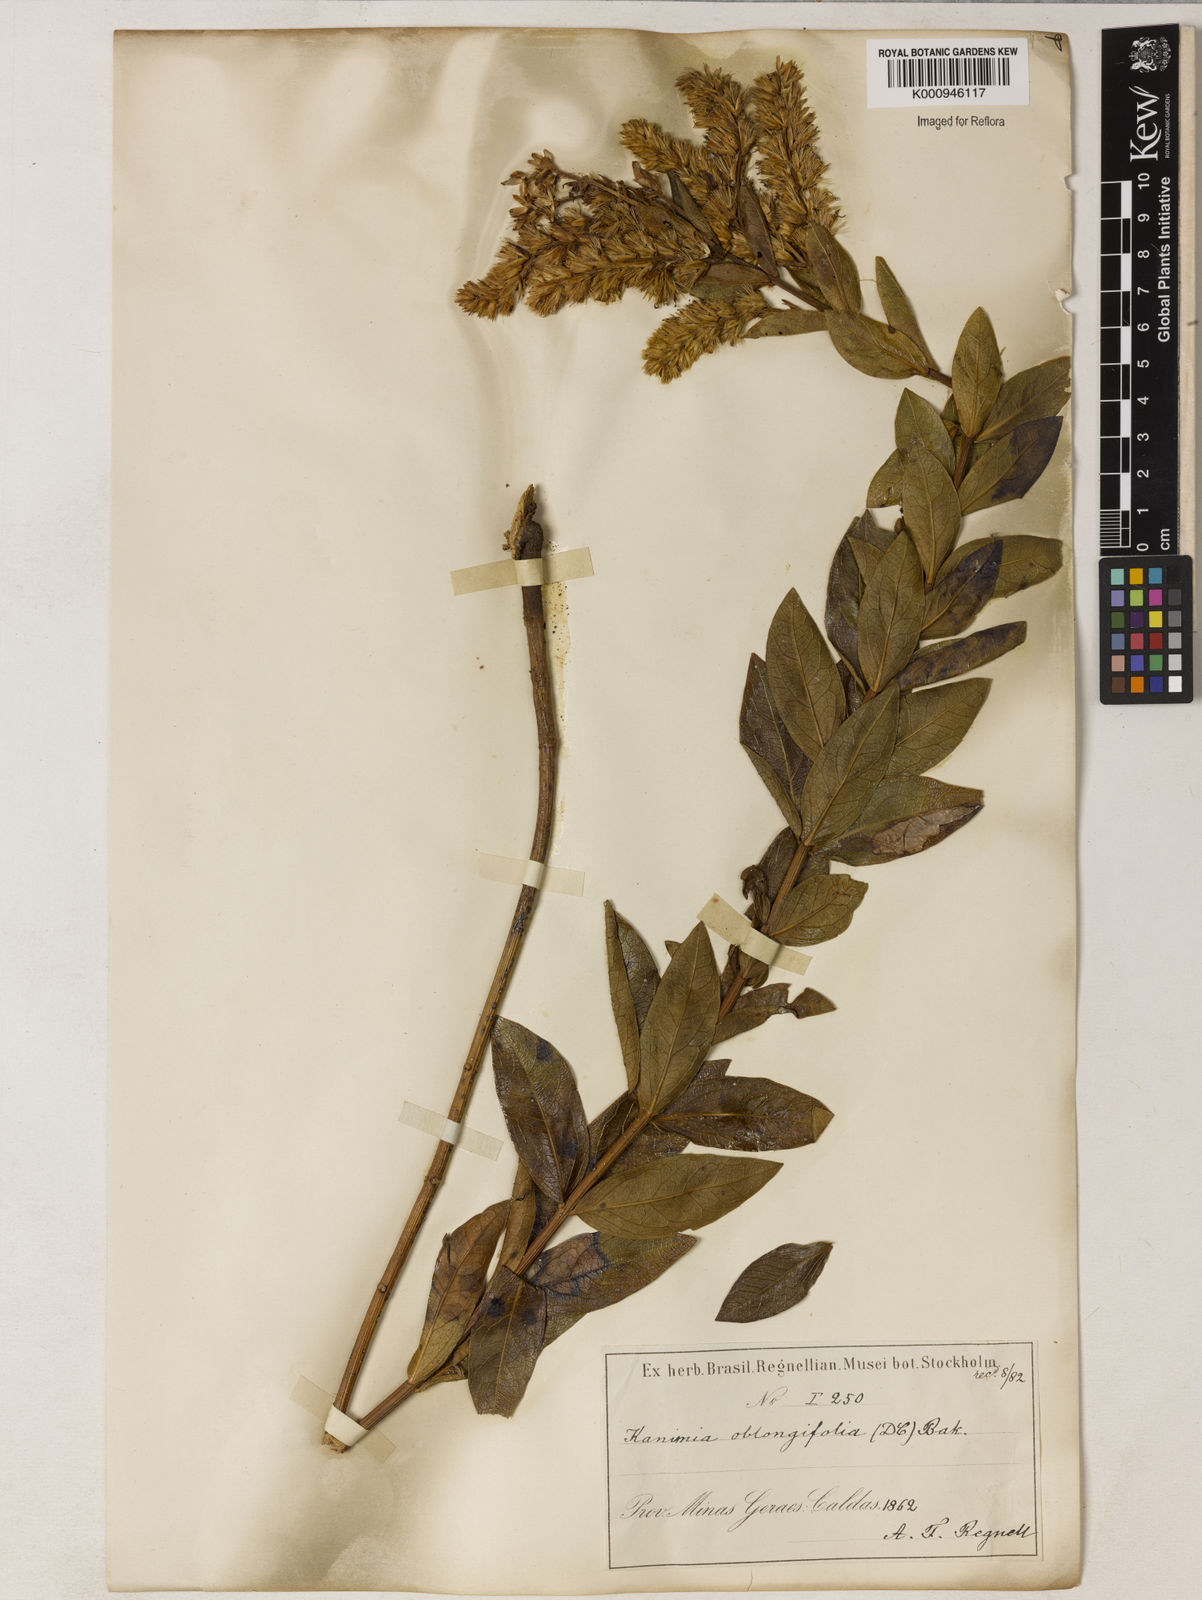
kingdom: Plantae
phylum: Tracheophyta
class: Magnoliopsida
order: Asterales
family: Asteraceae
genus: Mikania
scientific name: Mikania oblongifolia
